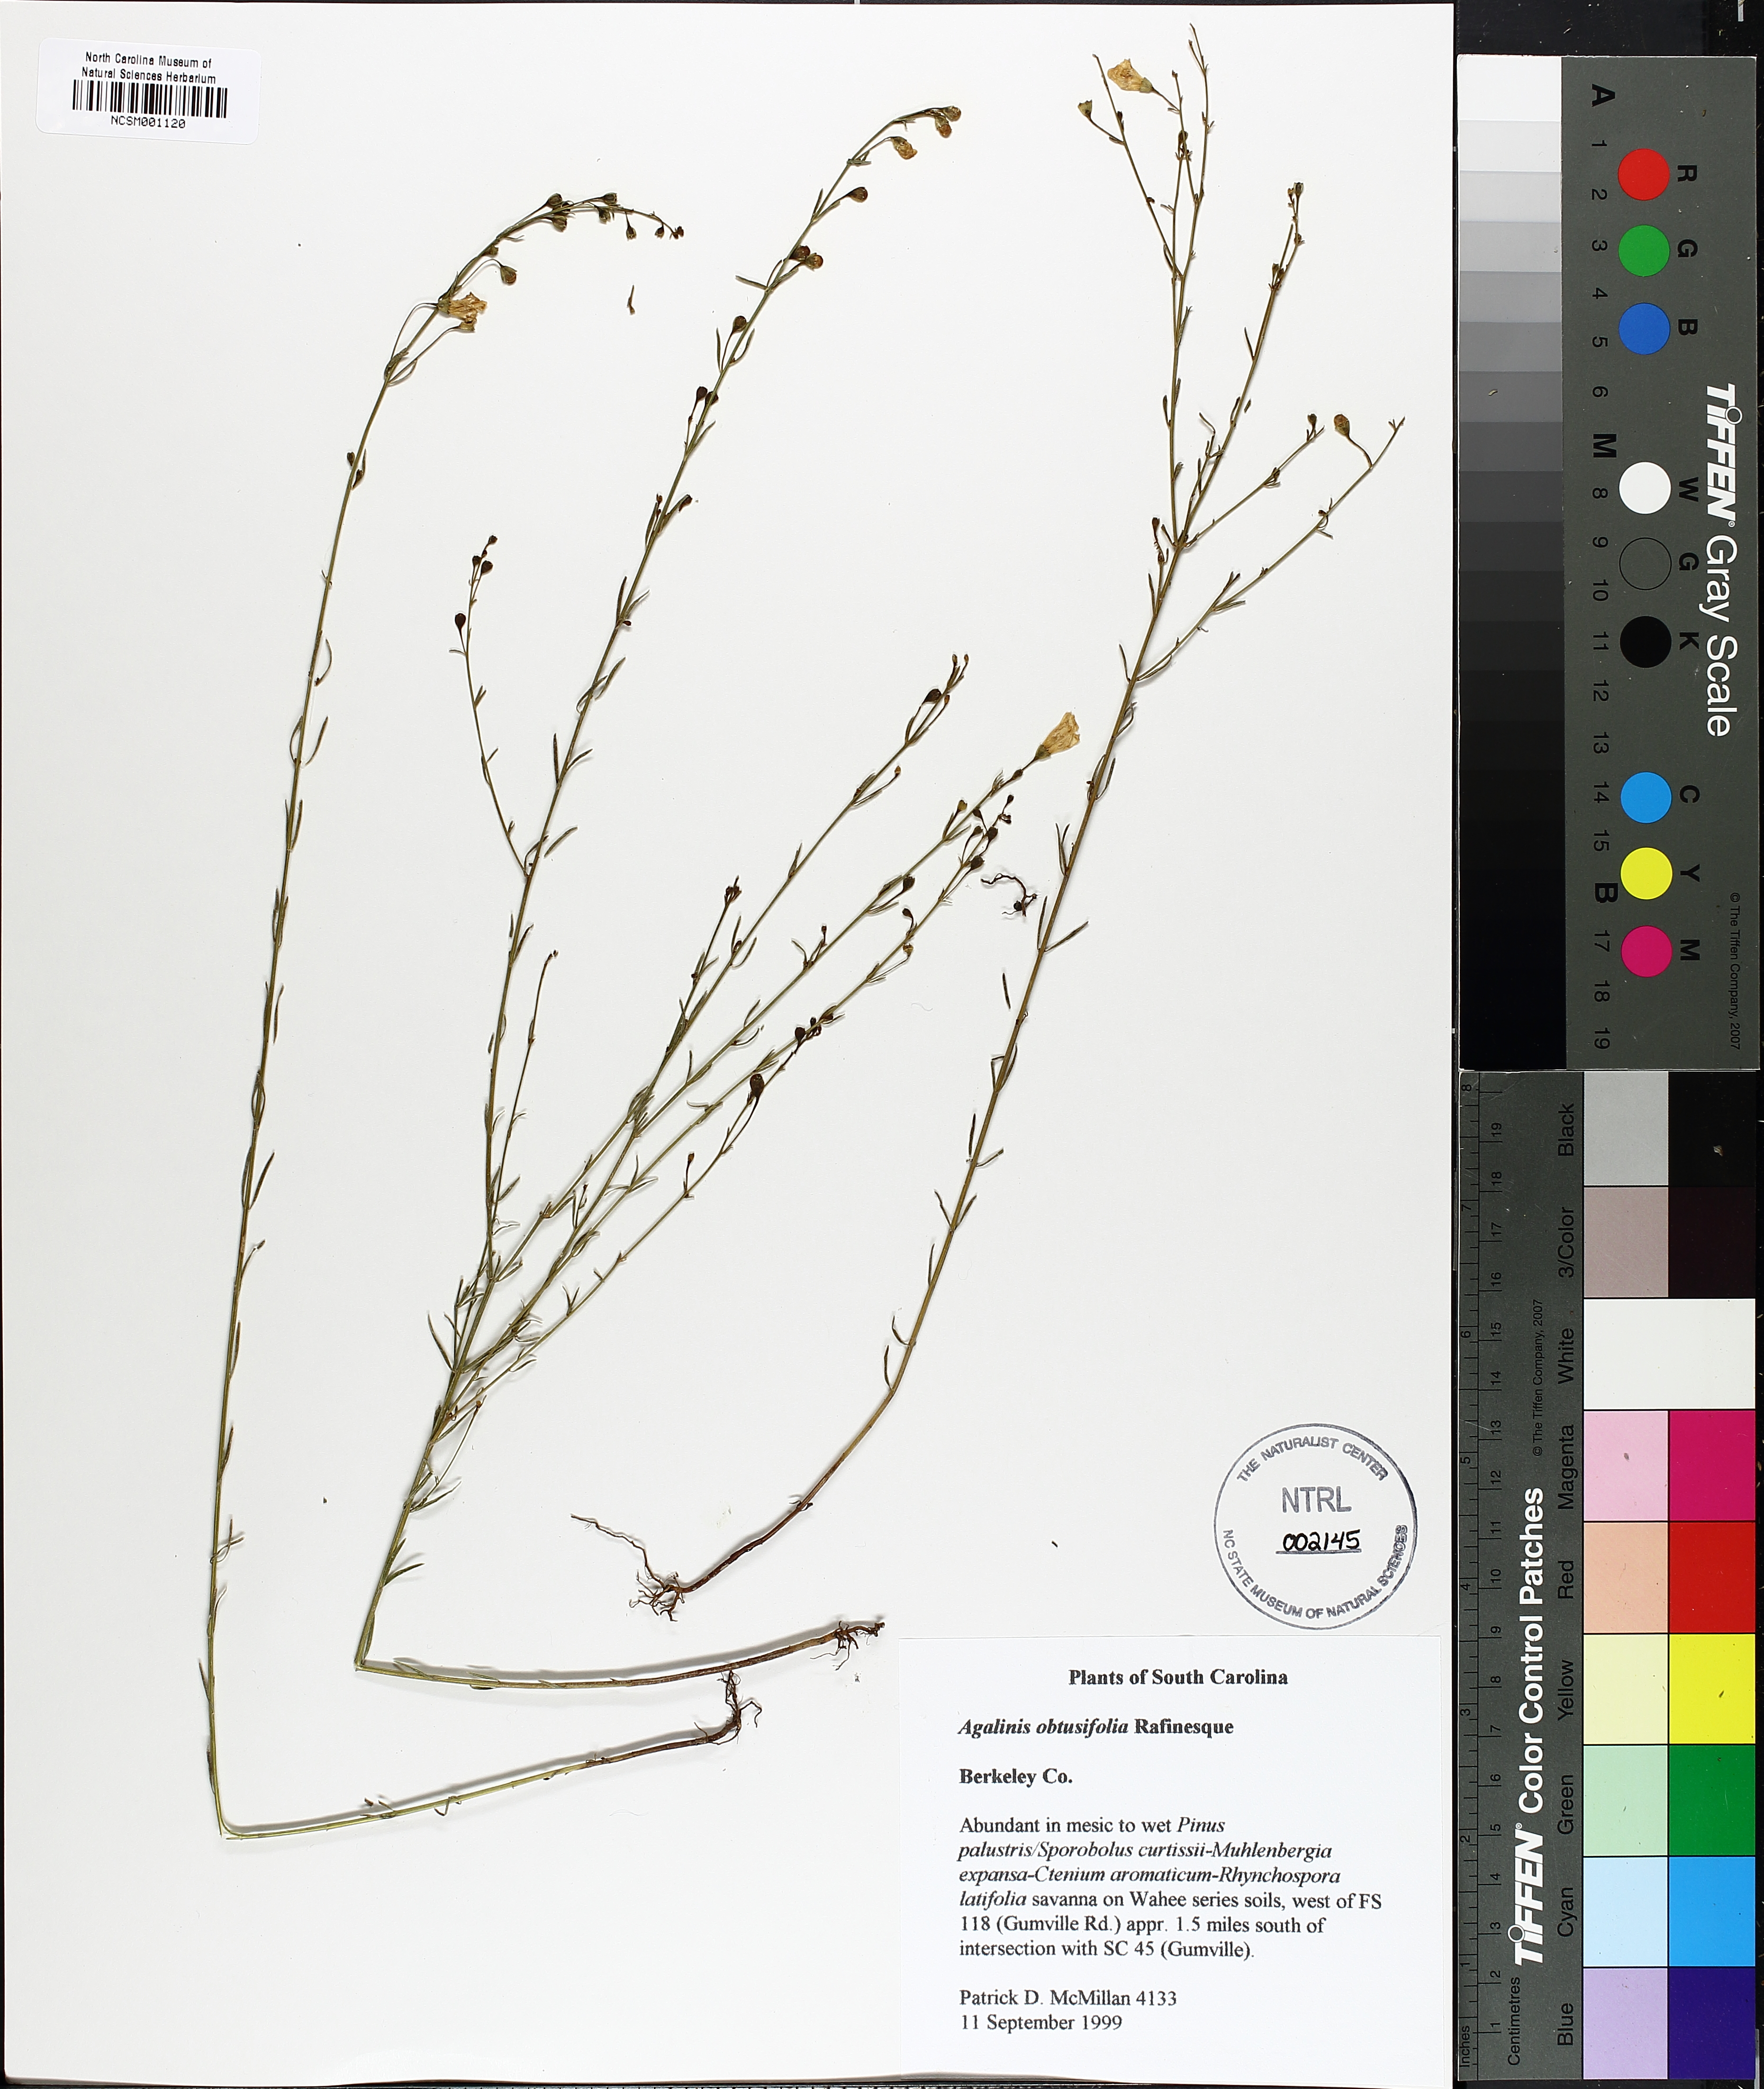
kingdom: Plantae
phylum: Tracheophyta
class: Magnoliopsida
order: Lamiales
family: Orobanchaceae
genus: Agalinis
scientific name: Agalinis obtusifolia
